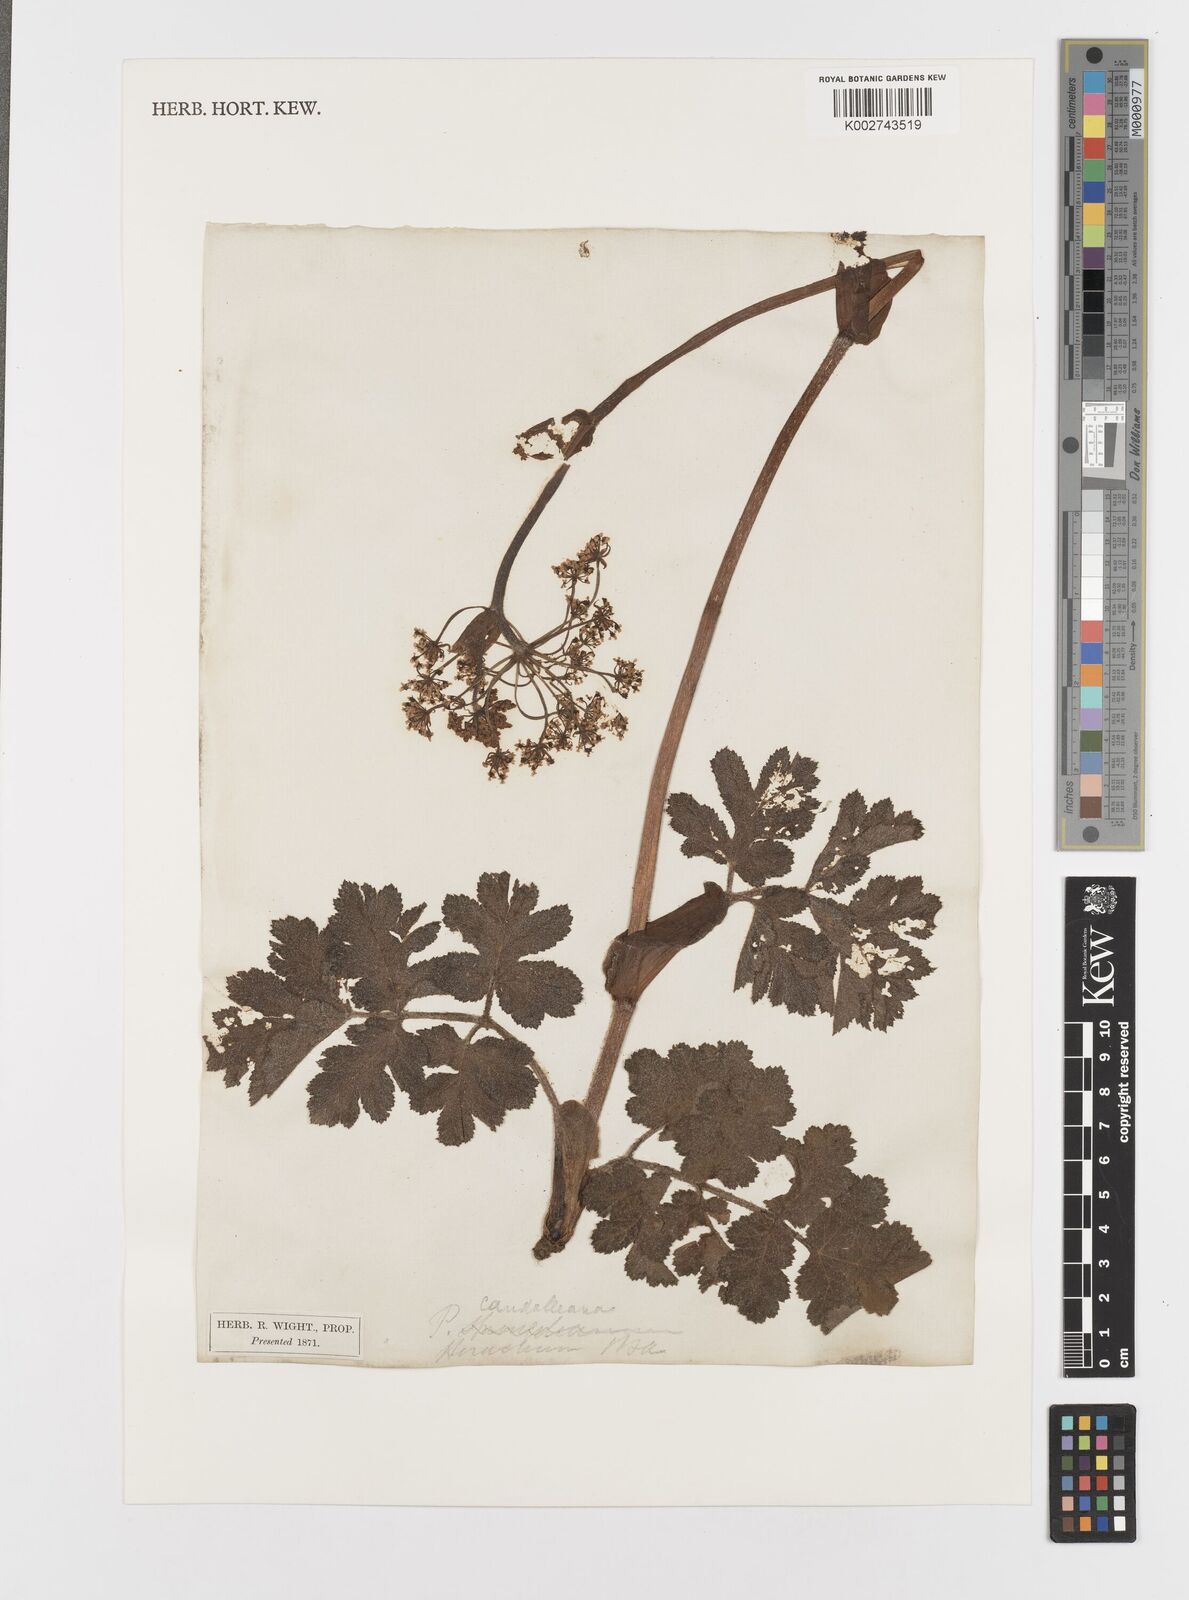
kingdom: Plantae
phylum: Tracheophyta
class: Magnoliopsida
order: Apiales
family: Apiaceae
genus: Tetrataenium
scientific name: Tetrataenium rigens
